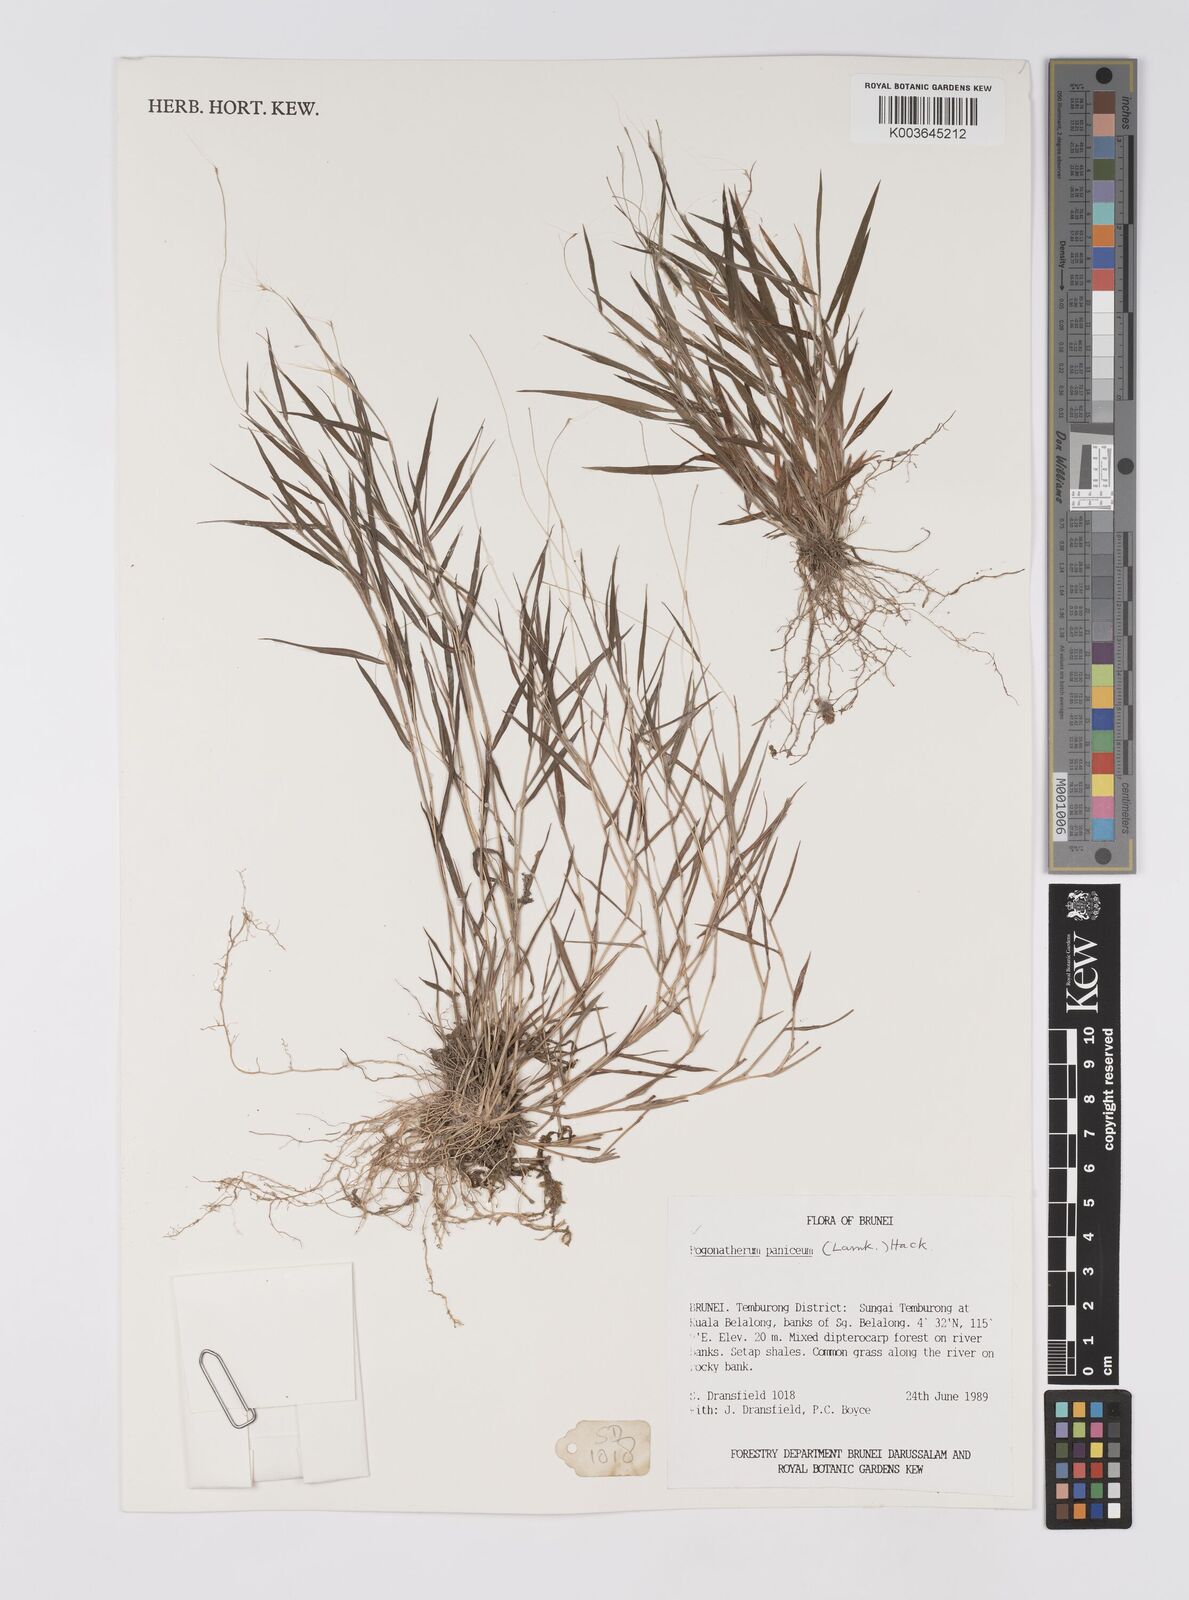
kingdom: Plantae
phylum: Tracheophyta
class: Liliopsida
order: Poales
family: Poaceae
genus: Pogonatherum
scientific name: Pogonatherum paniceum
